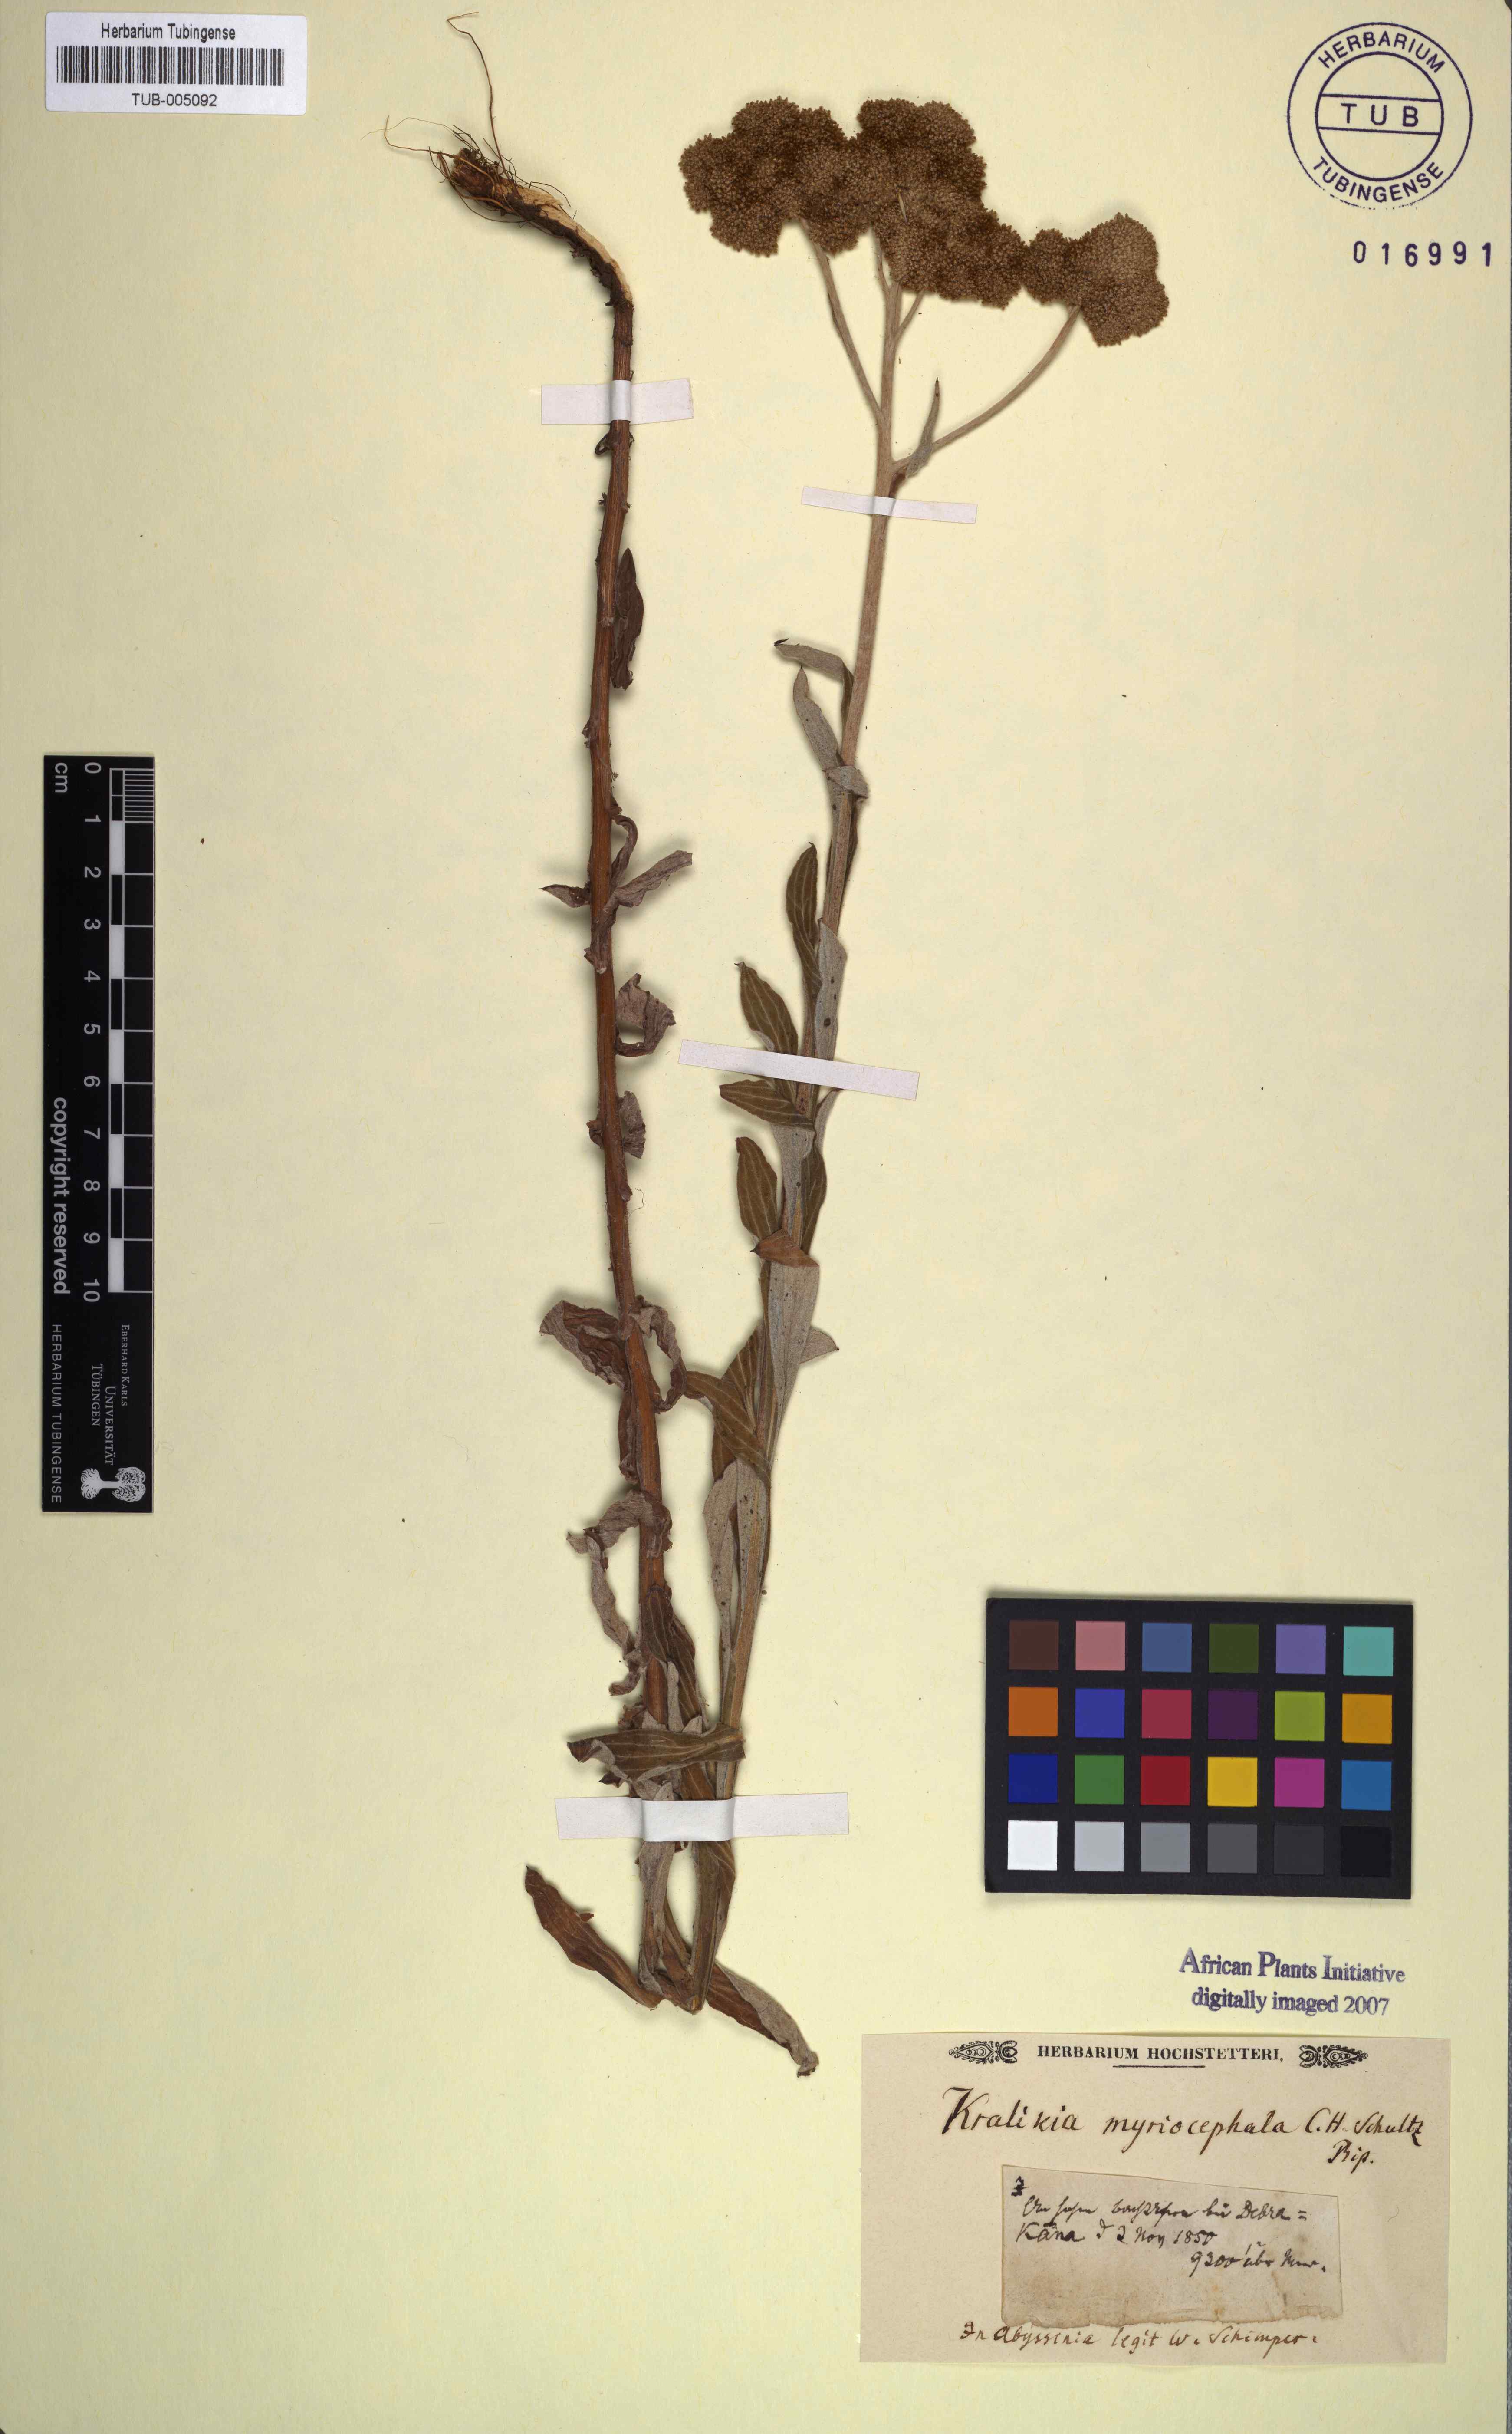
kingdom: Plantae
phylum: Tracheophyta
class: Magnoliopsida
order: Asterales
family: Asteraceae
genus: Chiliocephalum
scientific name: Chiliocephalum schimperi
